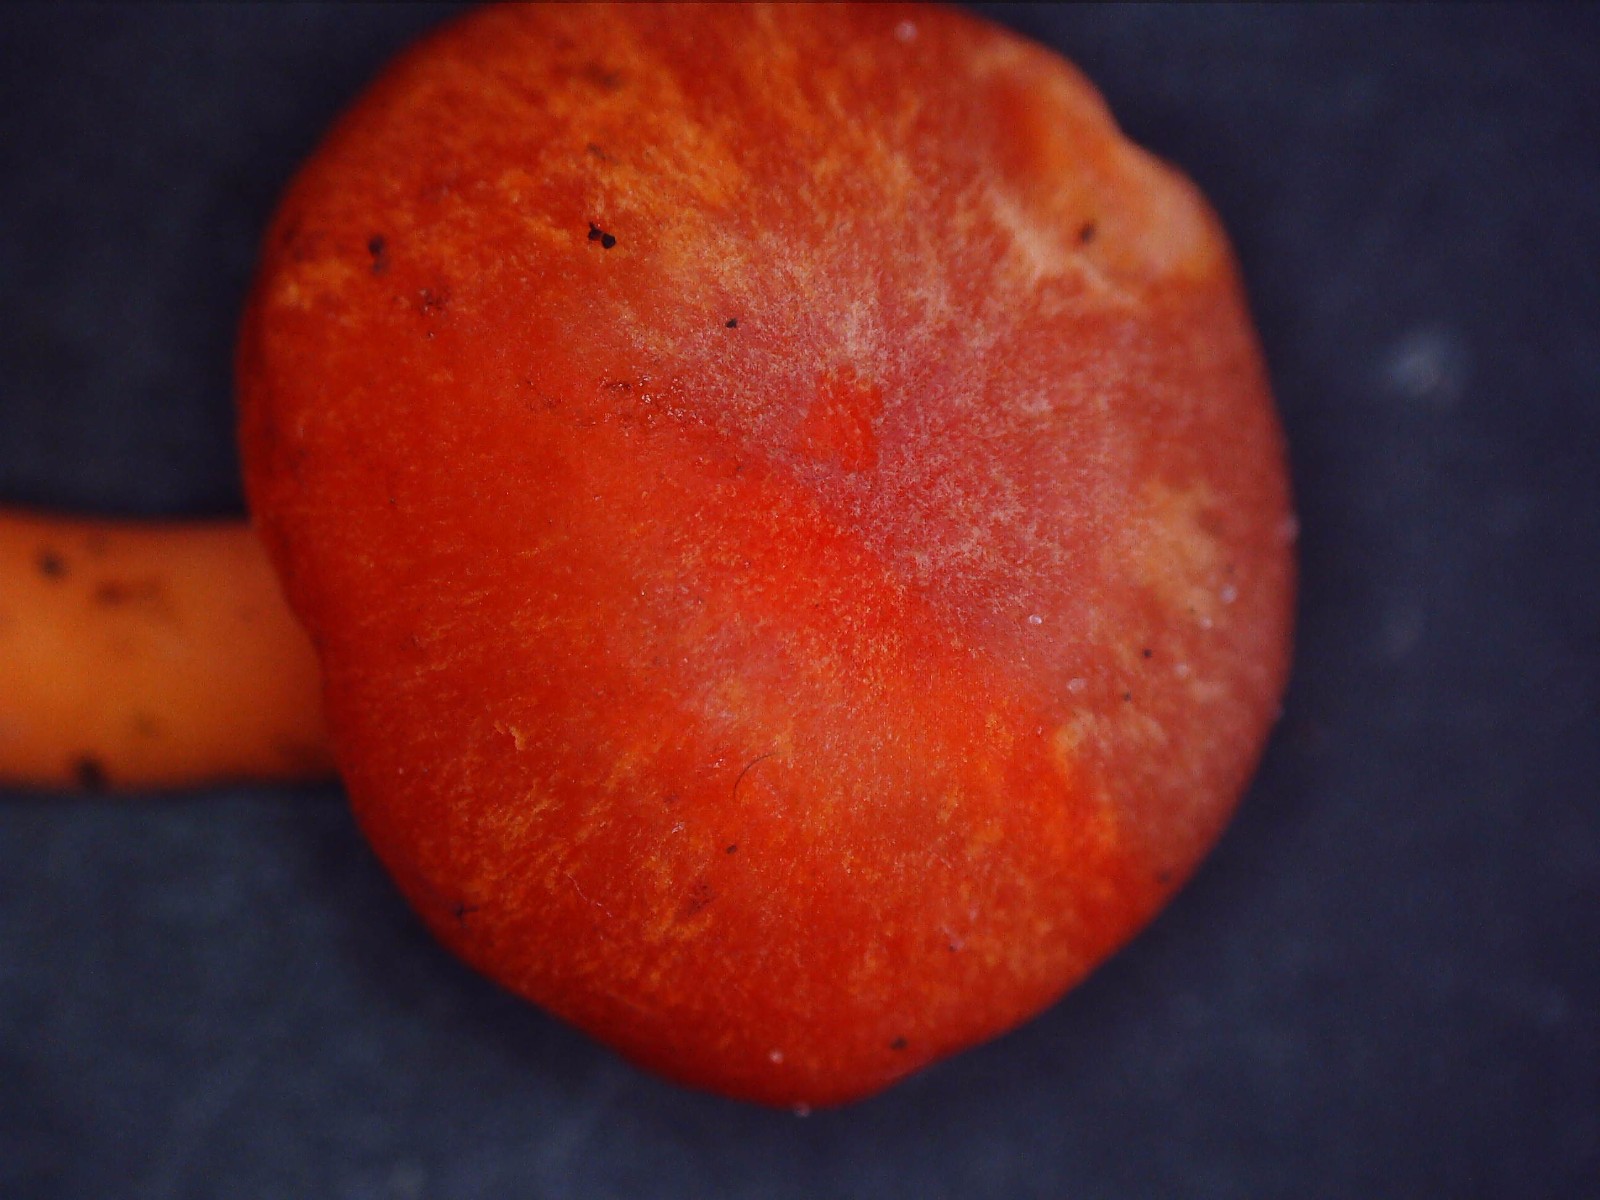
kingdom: Fungi
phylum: Basidiomycota
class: Agaricomycetes
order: Agaricales
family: Hygrophoraceae
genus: Hygrocybe
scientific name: Hygrocybe miniata
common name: mønje-vokshat
